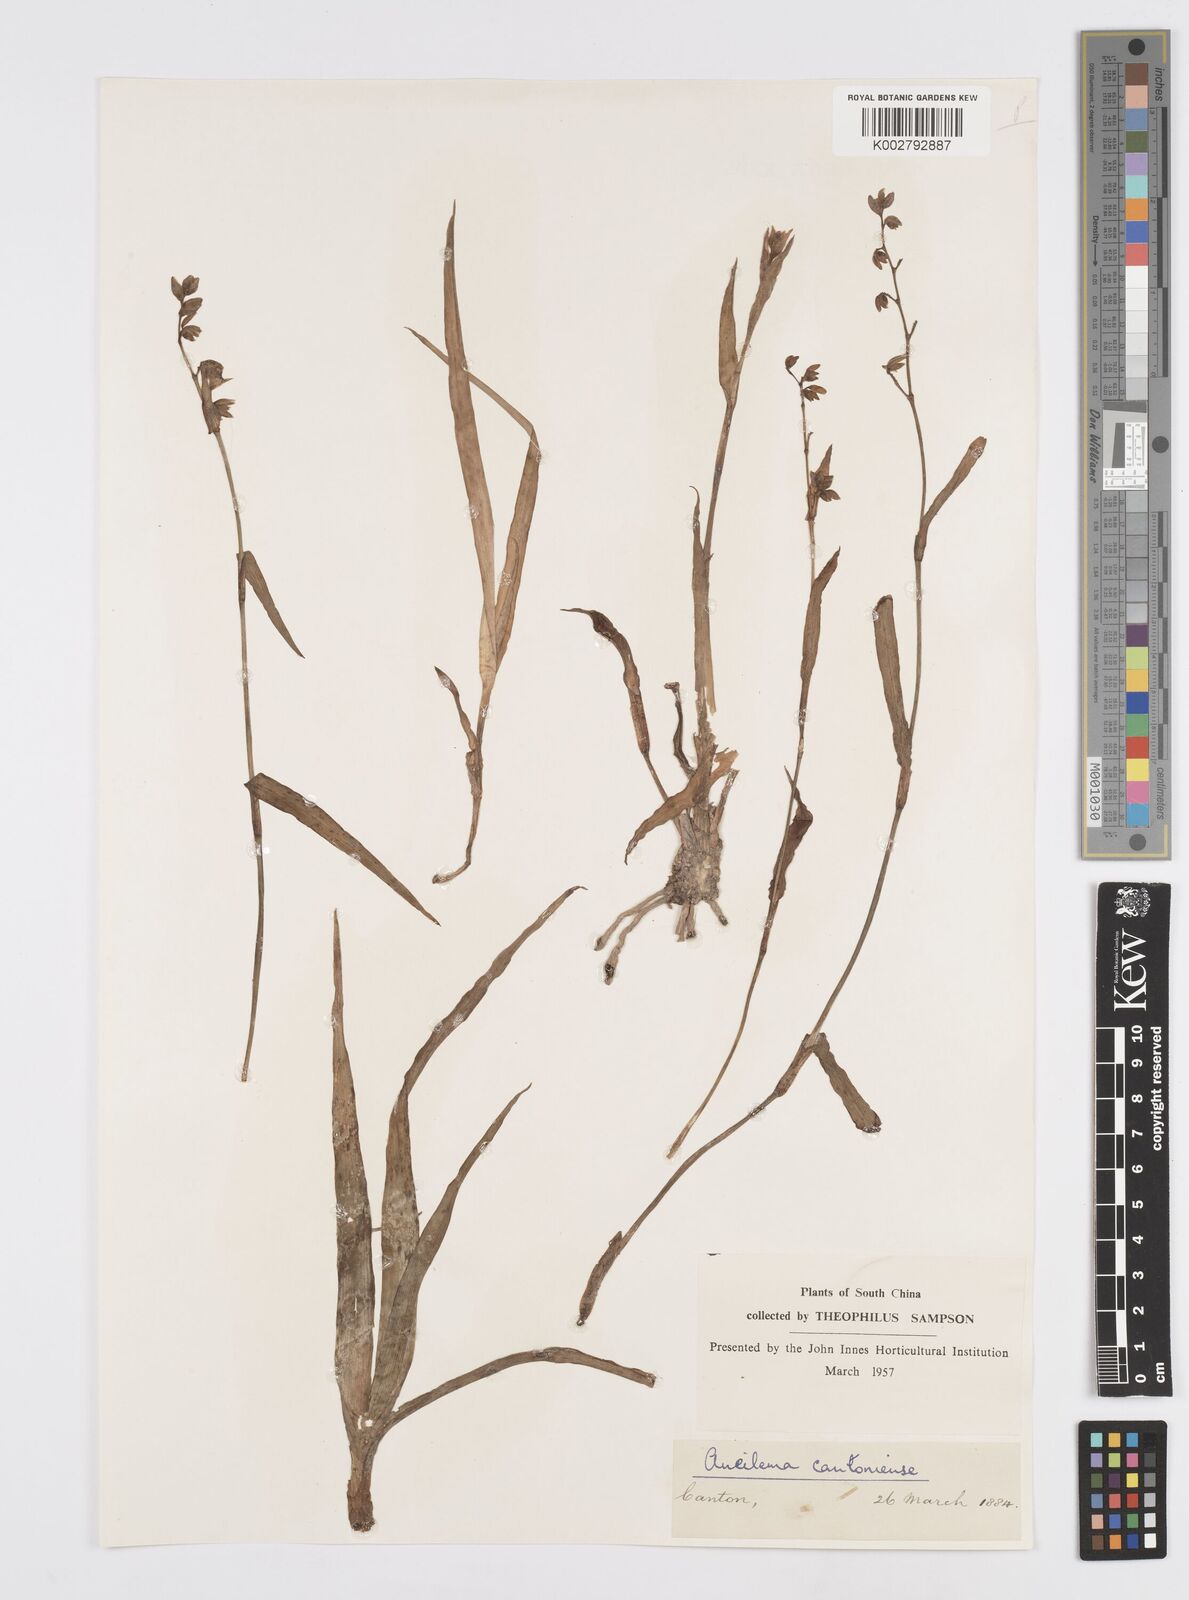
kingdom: Plantae
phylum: Tracheophyta
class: Liliopsida
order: Commelinales
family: Commelinaceae
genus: Murdannia
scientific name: Murdannia
